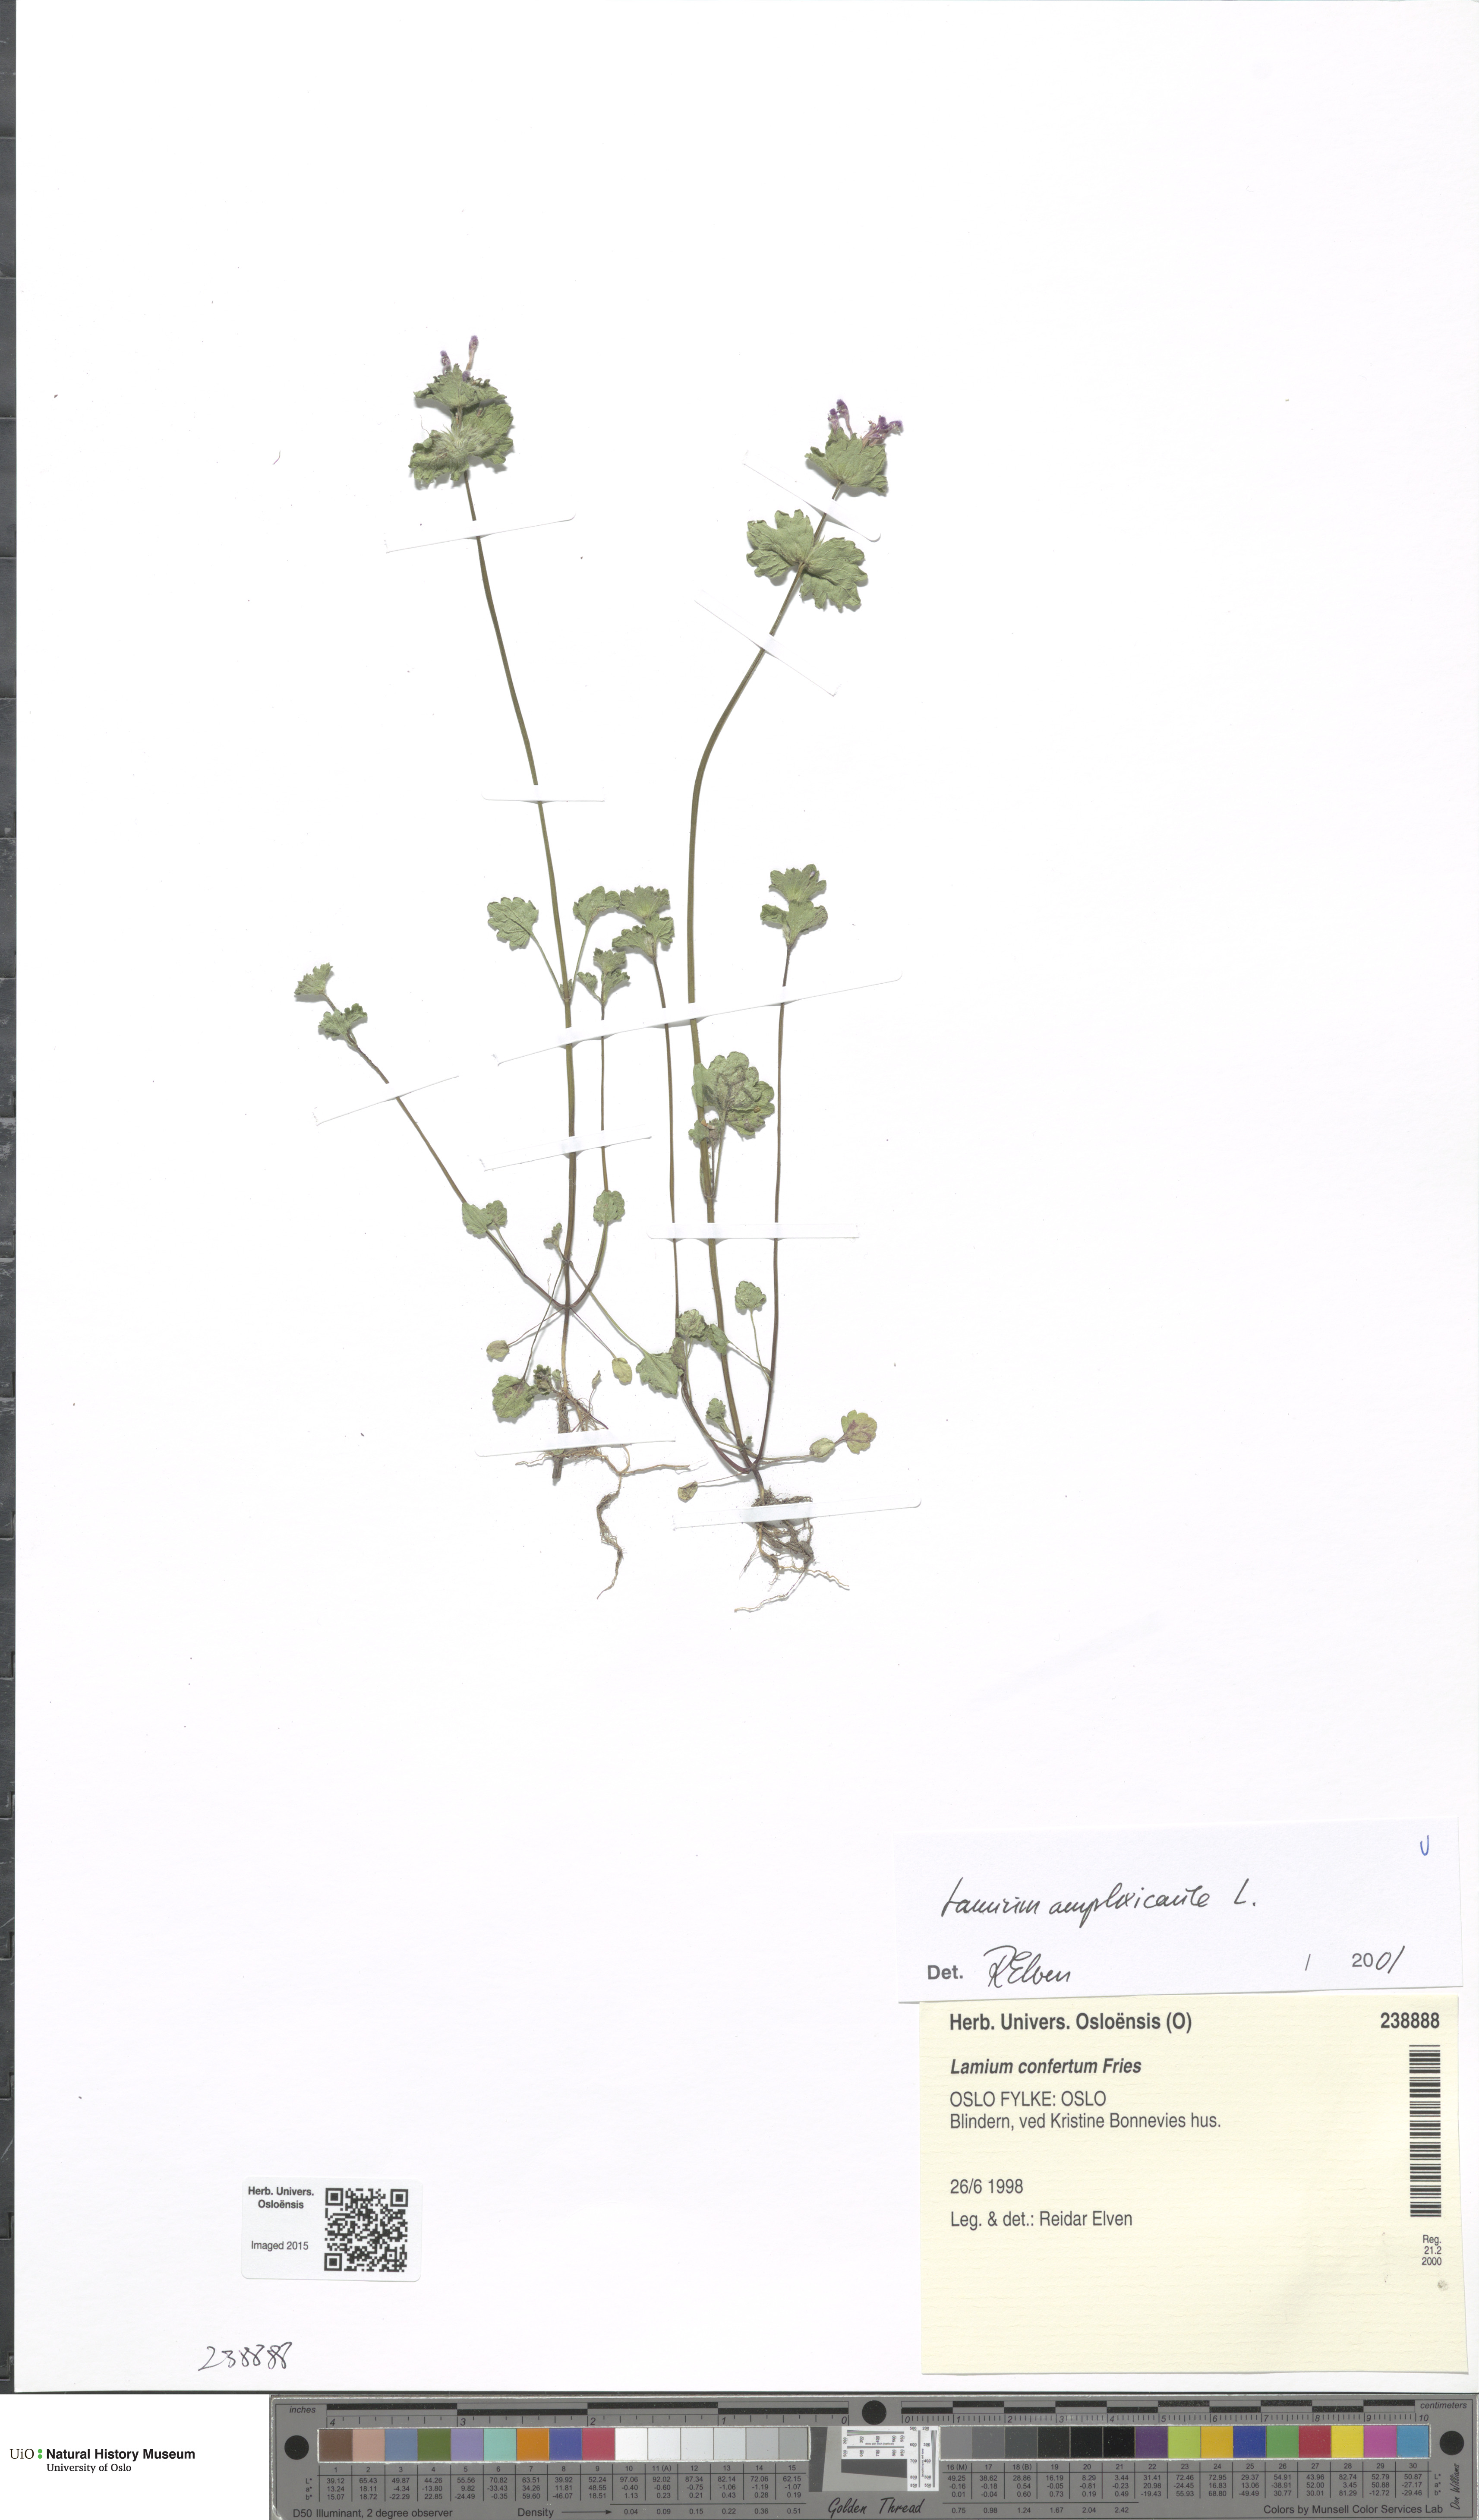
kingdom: Plantae
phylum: Tracheophyta
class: Magnoliopsida
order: Lamiales
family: Lamiaceae
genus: Lamium
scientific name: Lamium amplexicaule
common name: Henbit dead-nettle
